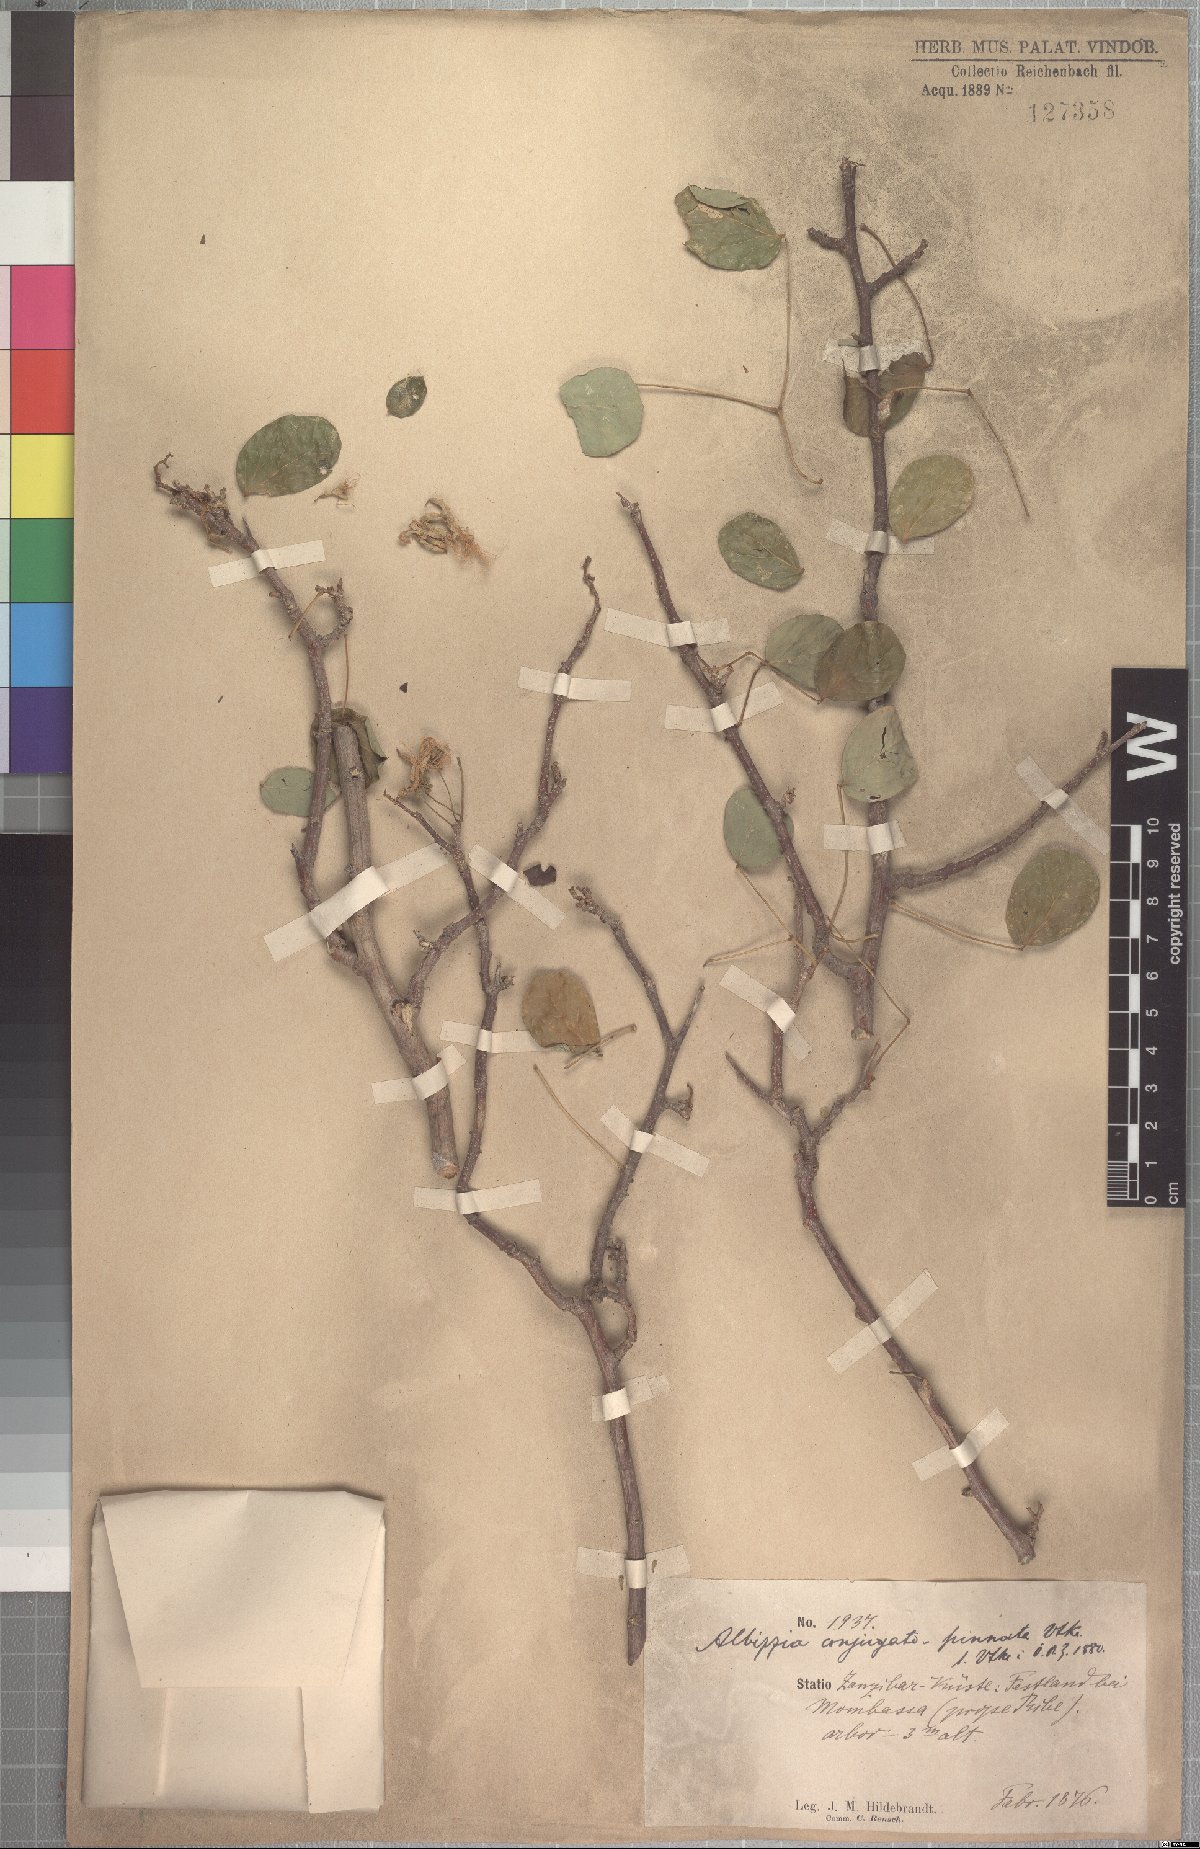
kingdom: Plantae
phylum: Tracheophyta
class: Magnoliopsida
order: Fabales
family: Fabaceae
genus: Albizia
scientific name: Albizia anthelmintica
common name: Worm-bark false-thorn
